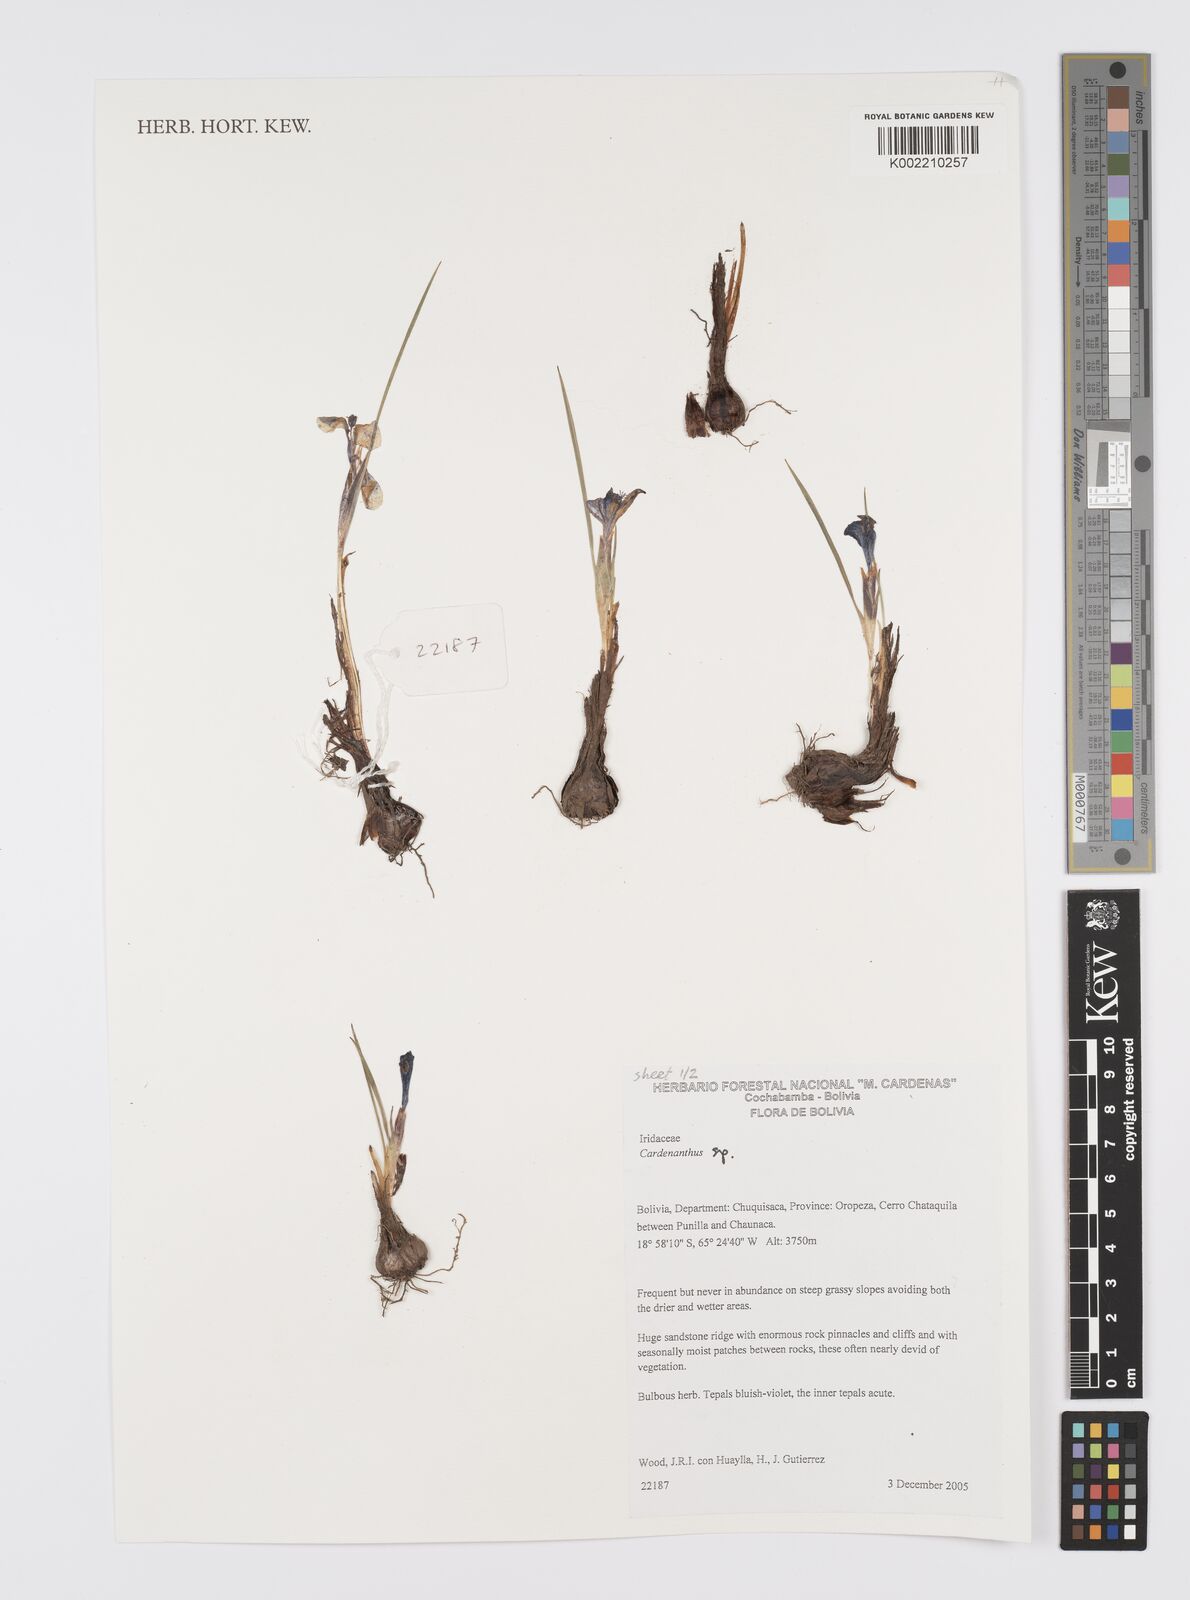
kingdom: Plantae
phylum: Tracheophyta
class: Liliopsida
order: Asparagales
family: Iridaceae
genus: Mastigostyla
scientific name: Mastigostyla
